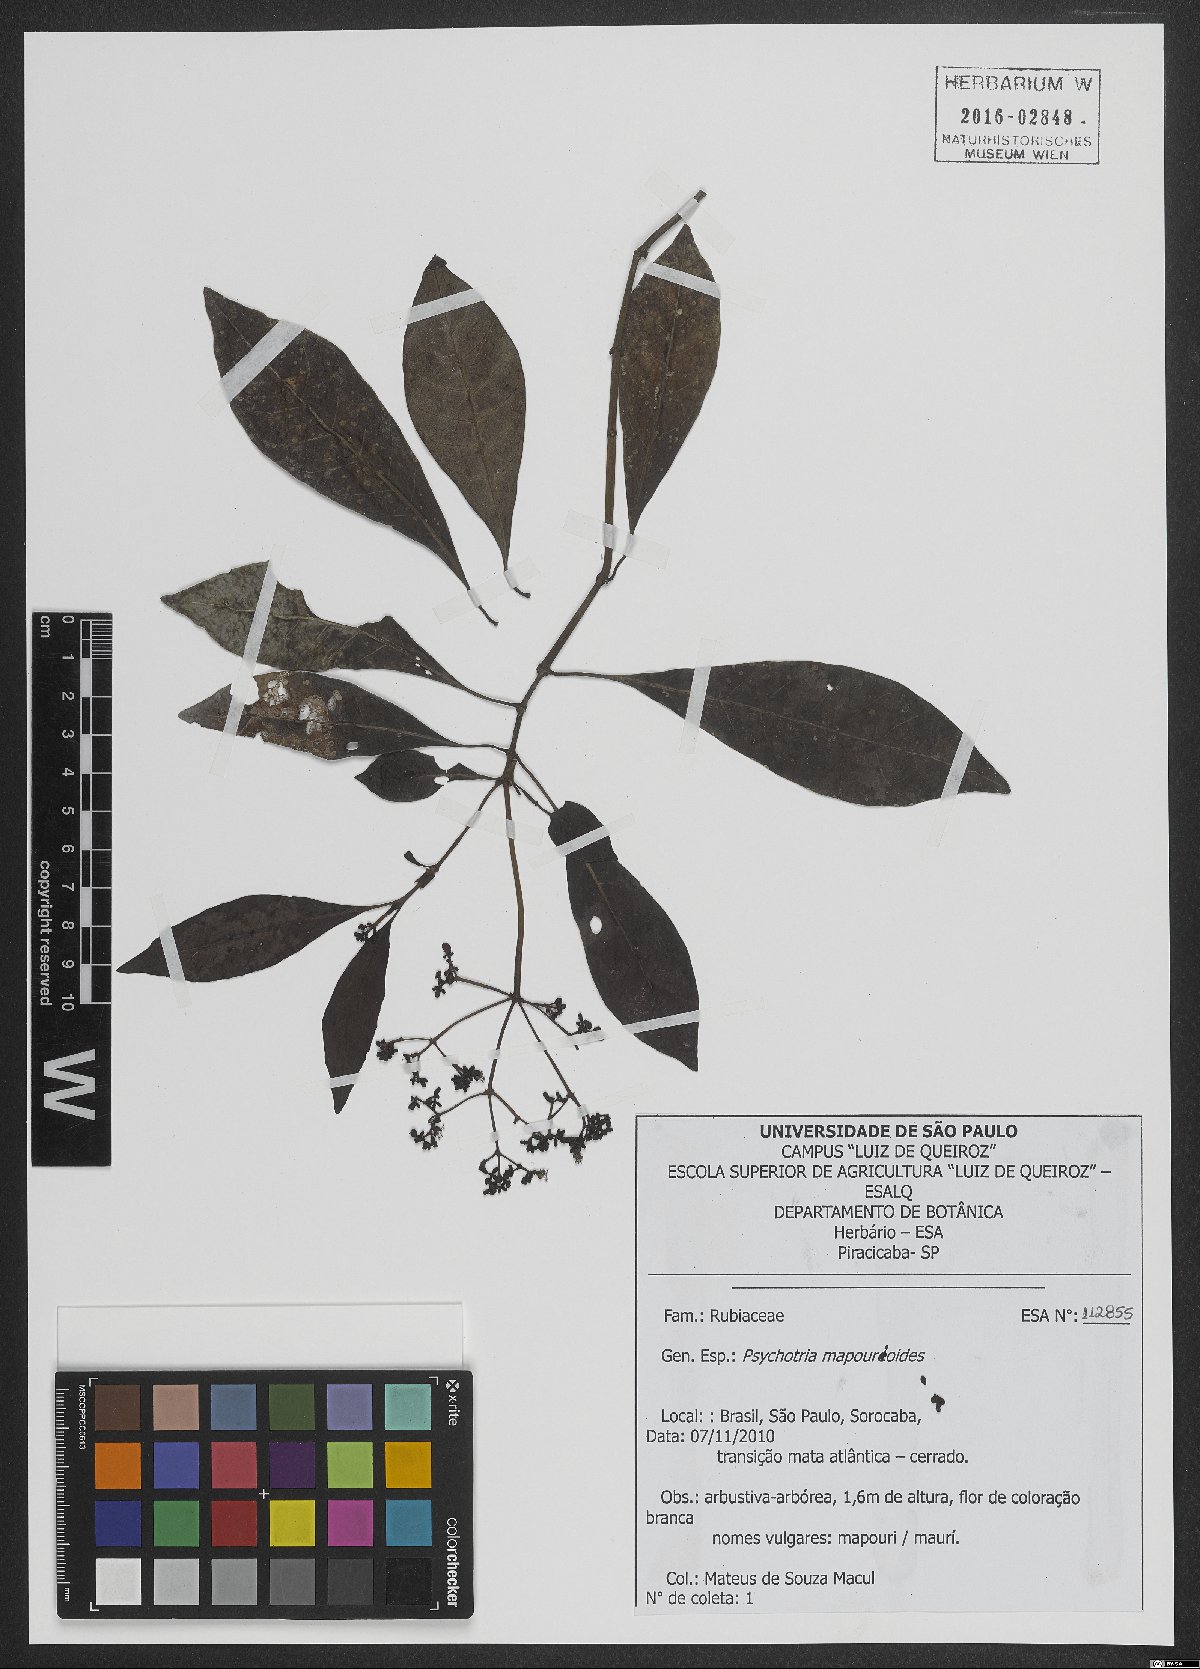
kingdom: Plantae
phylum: Tracheophyta
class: Magnoliopsida
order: Gentianales
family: Rubiaceae
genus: Psychotria
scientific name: Psychotria pedunculosa
